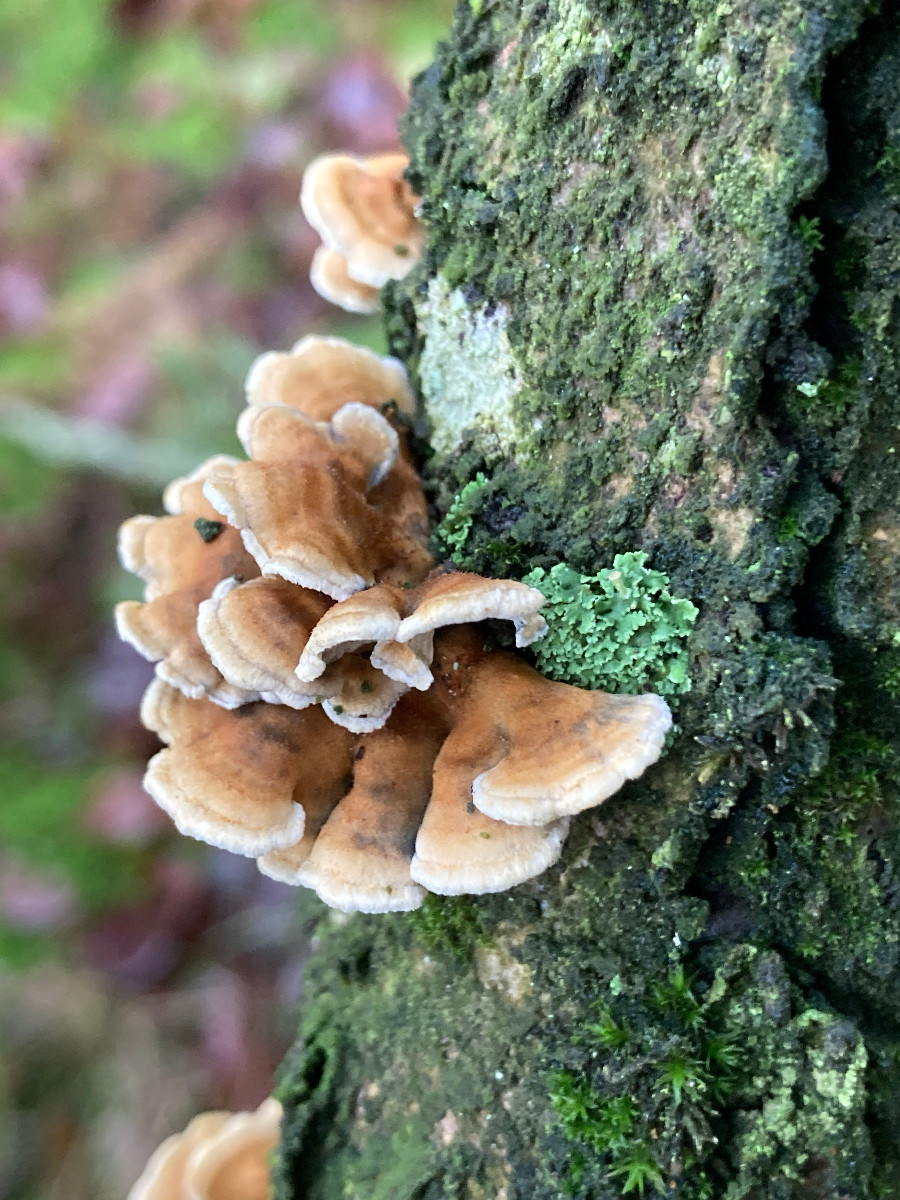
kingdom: Fungi
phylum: Basidiomycota
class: Agaricomycetes
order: Amylocorticiales
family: Amylocorticiaceae
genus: Plicaturopsis
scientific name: Plicaturopsis crispa
